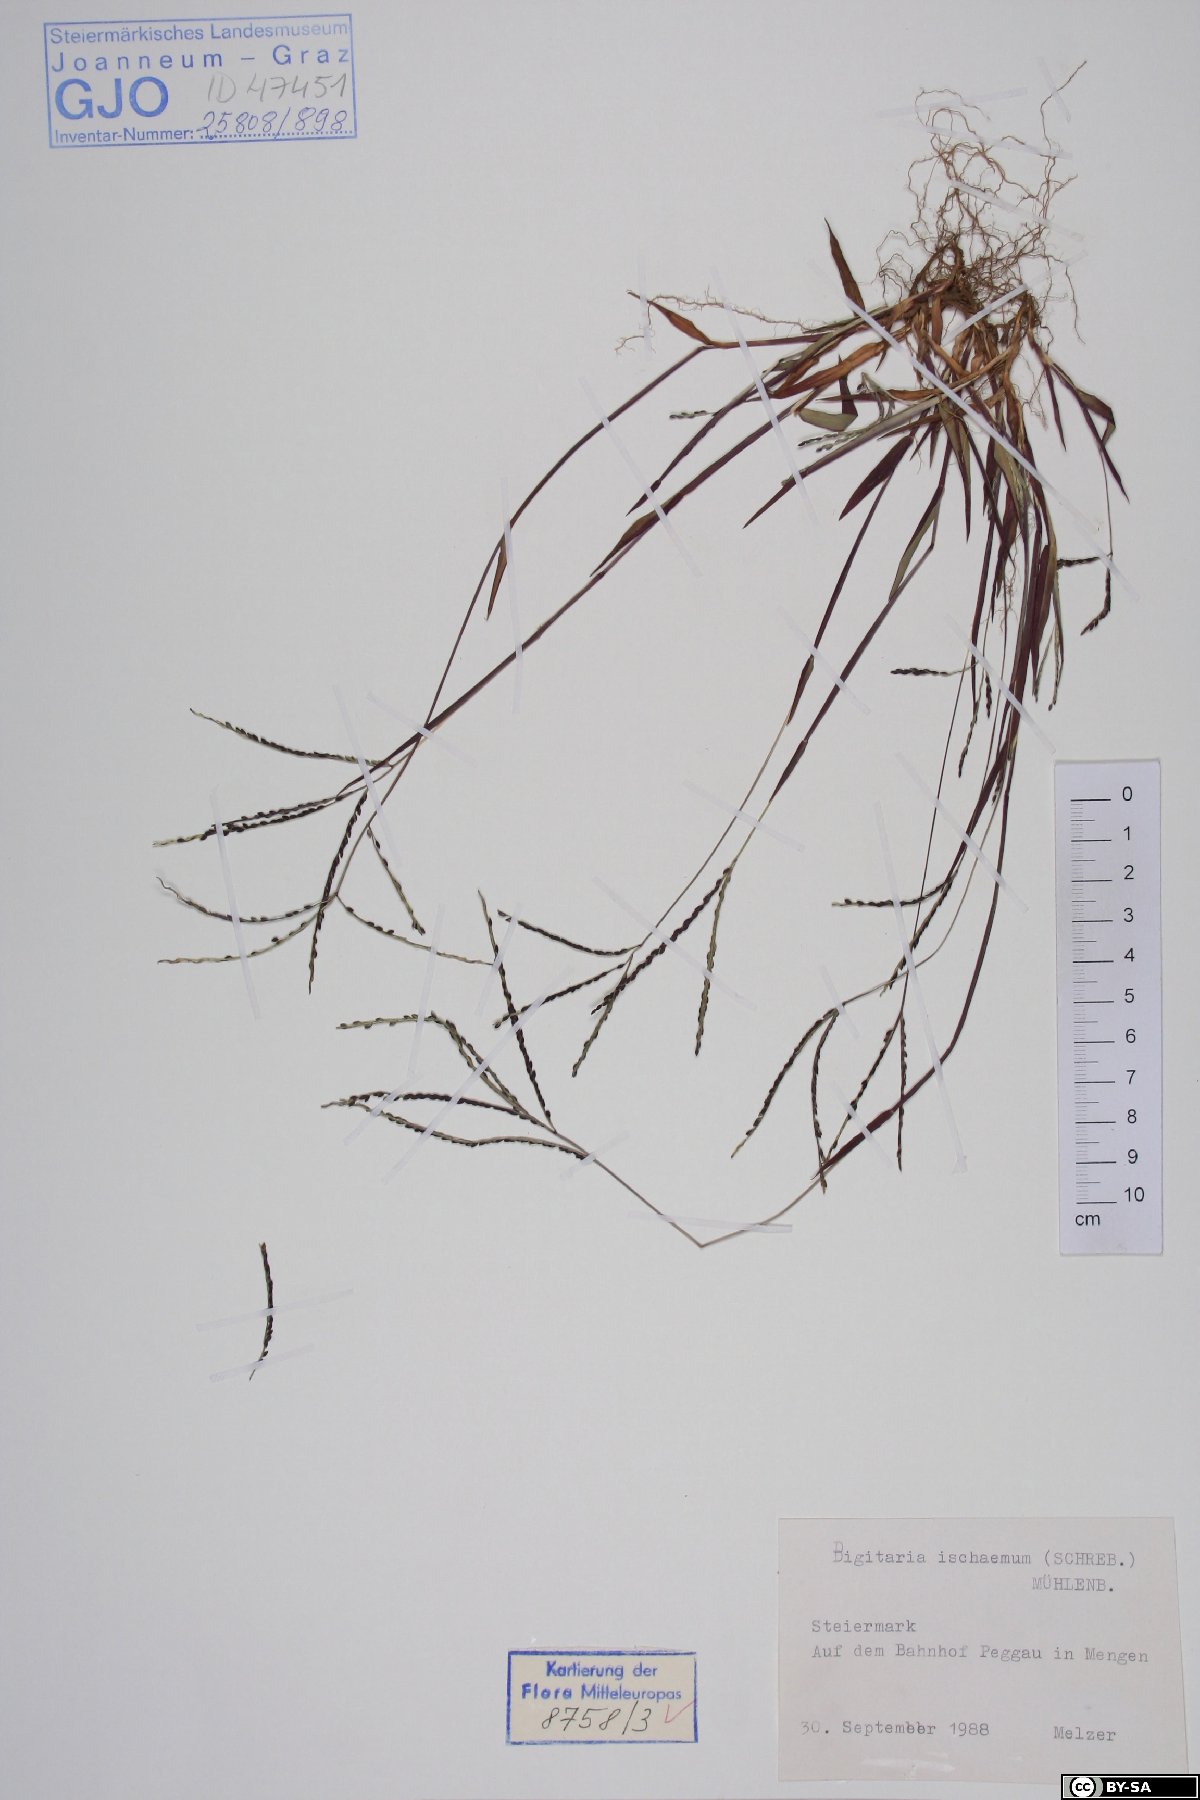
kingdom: Plantae
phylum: Tracheophyta
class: Liliopsida
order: Poales
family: Poaceae
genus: Digitaria
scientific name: Digitaria ischaemum
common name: Smooth crabgrass
